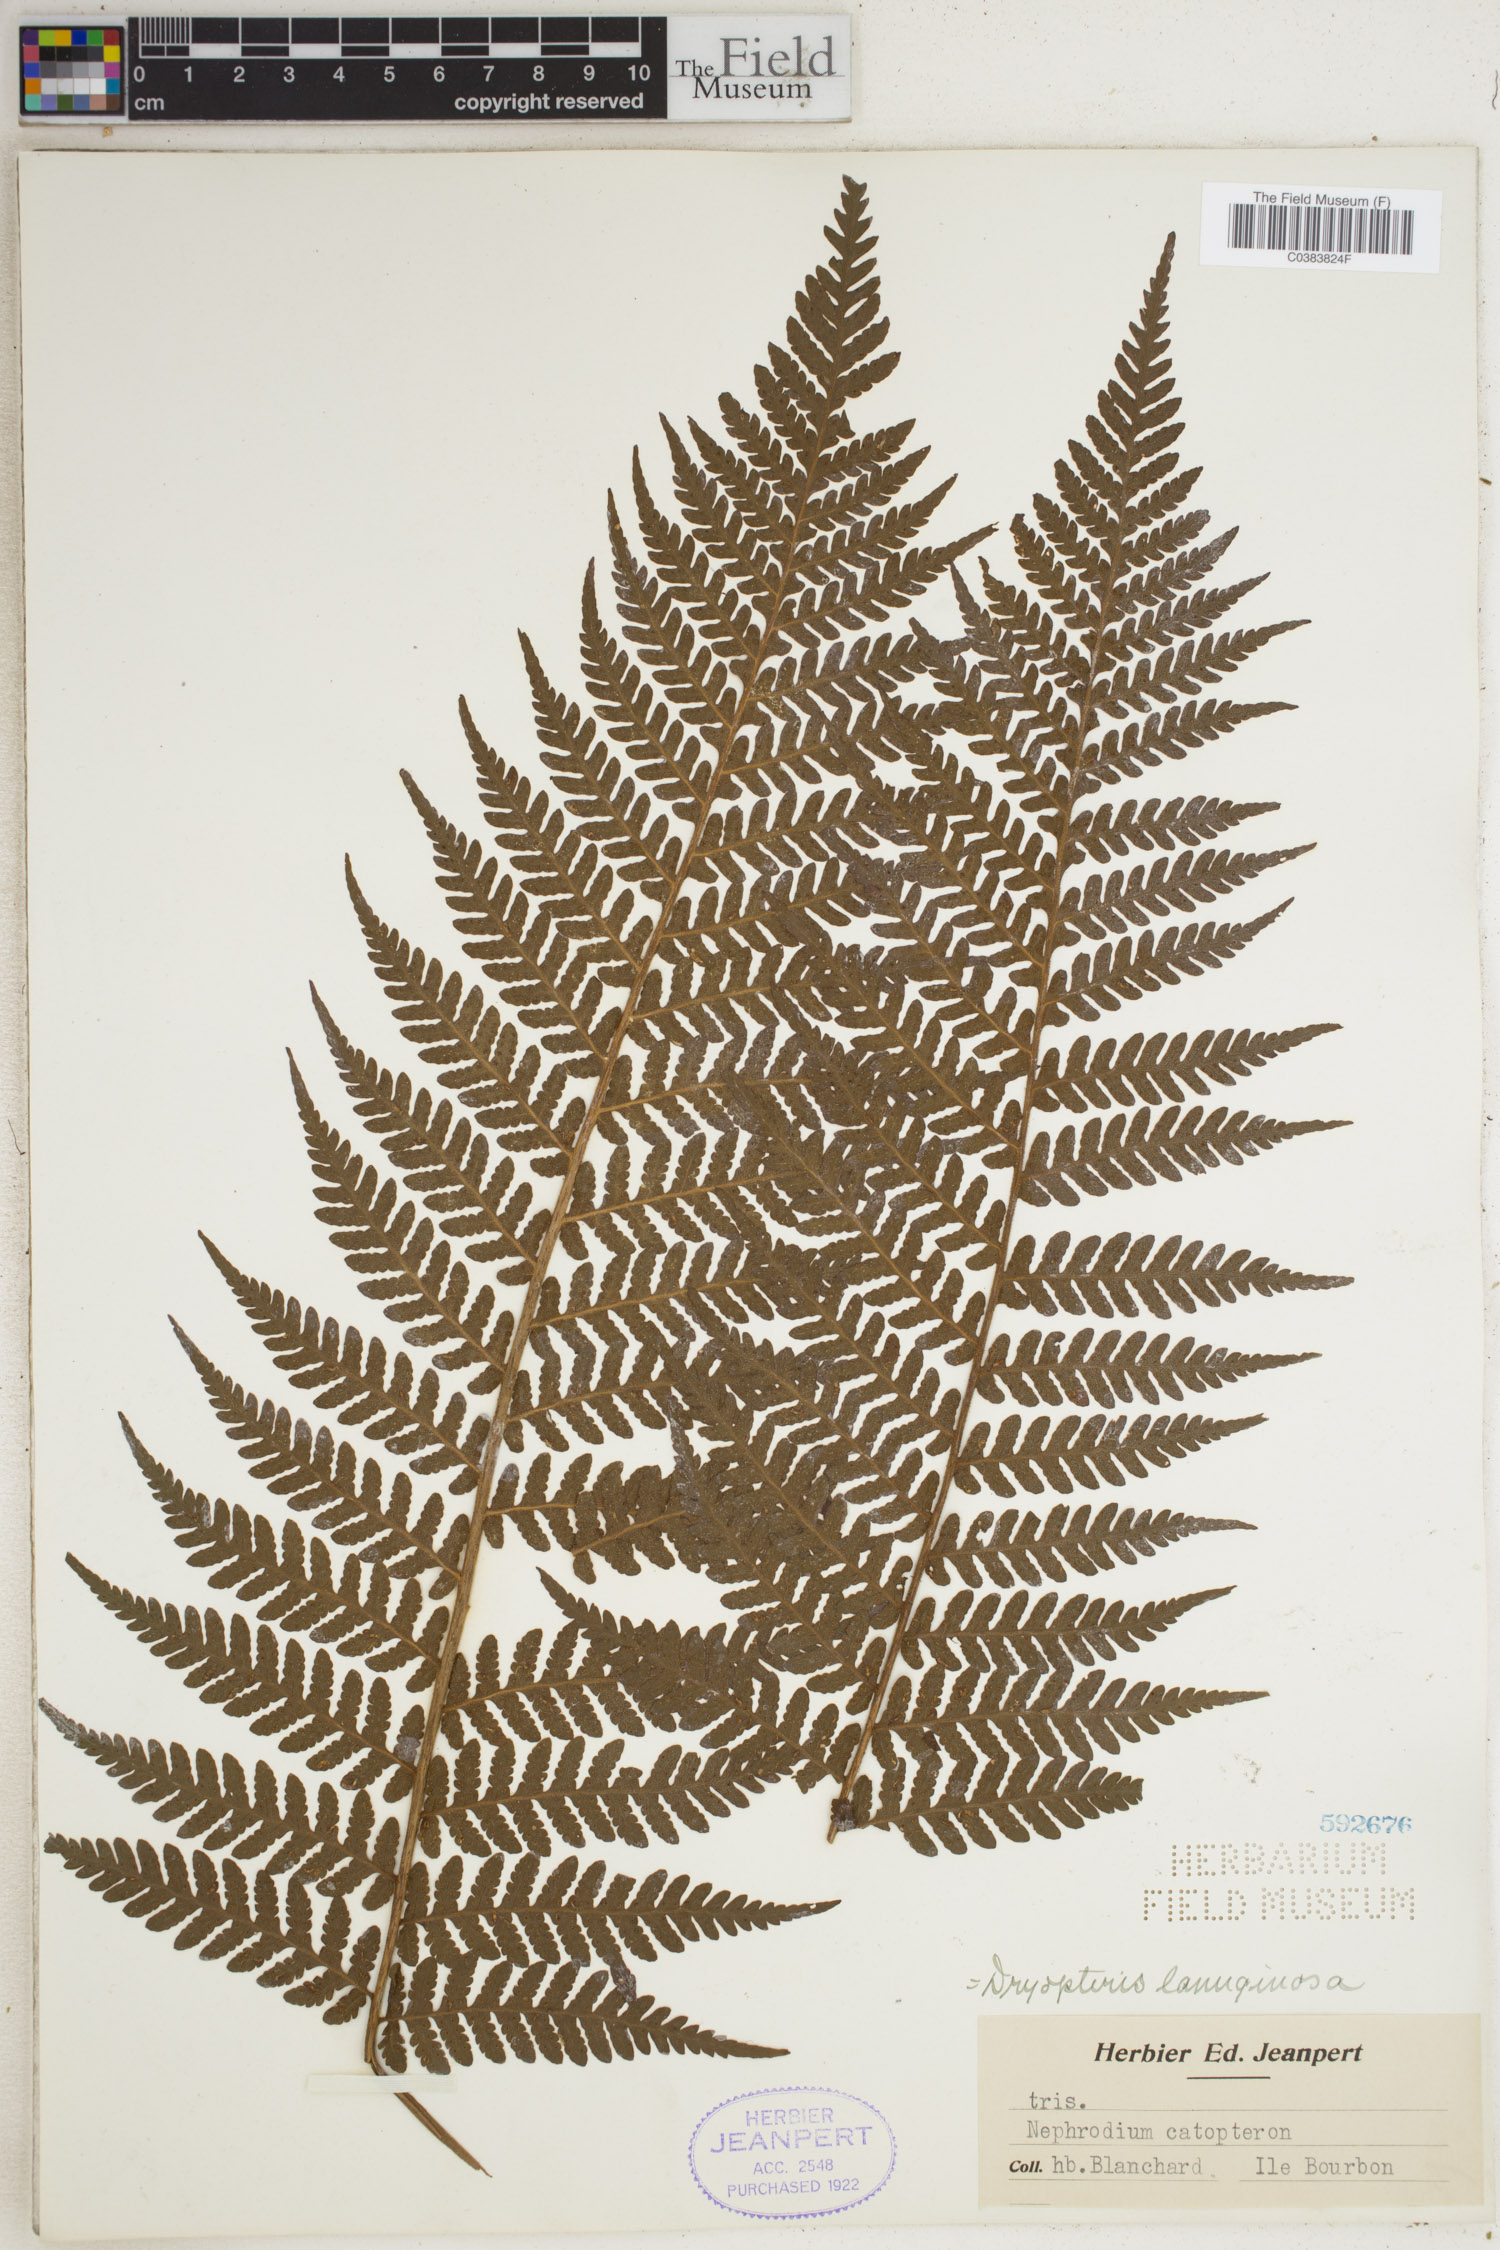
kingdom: Plantae
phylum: Tracheophyta
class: Polypodiopsida
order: Polypodiales
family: Dryopteridaceae
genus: Megalastrum
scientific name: Megalastrum lanuginosum
